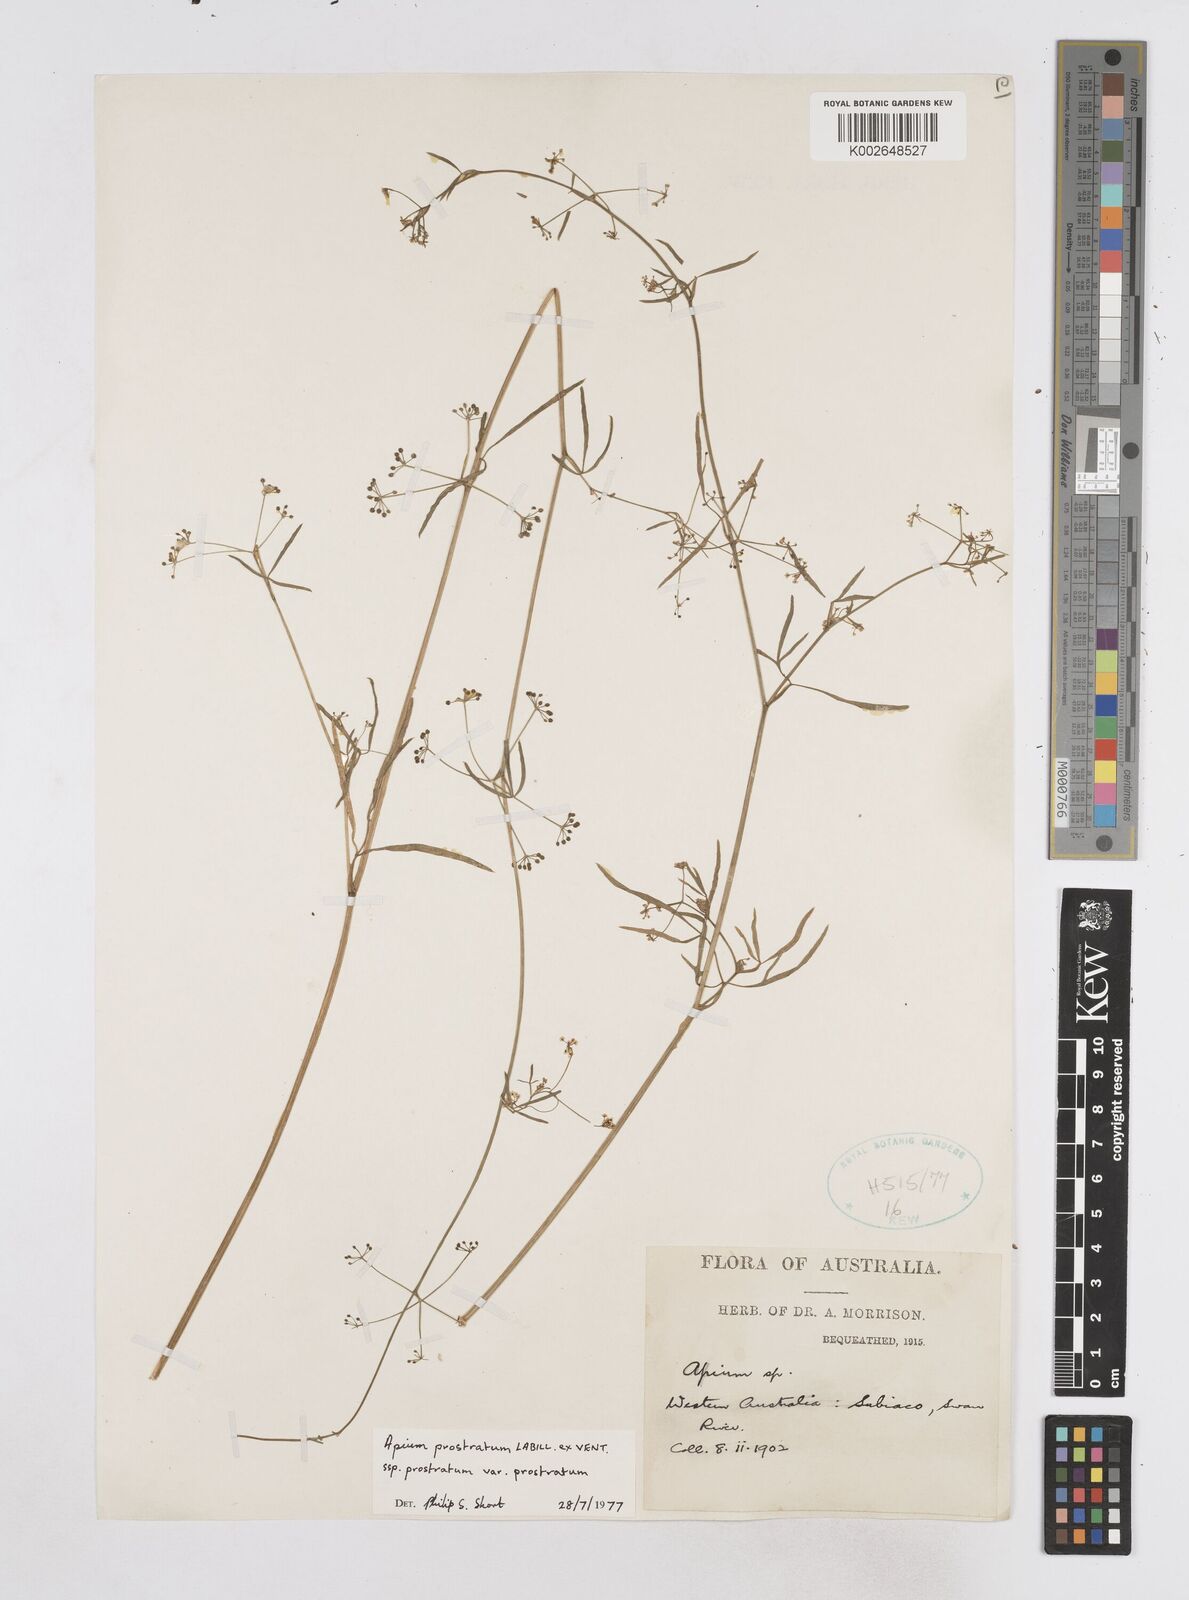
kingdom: Plantae
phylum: Tracheophyta
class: Magnoliopsida
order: Apiales
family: Apiaceae
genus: Apium
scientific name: Apium prostratum
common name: Prostrate marshwort
